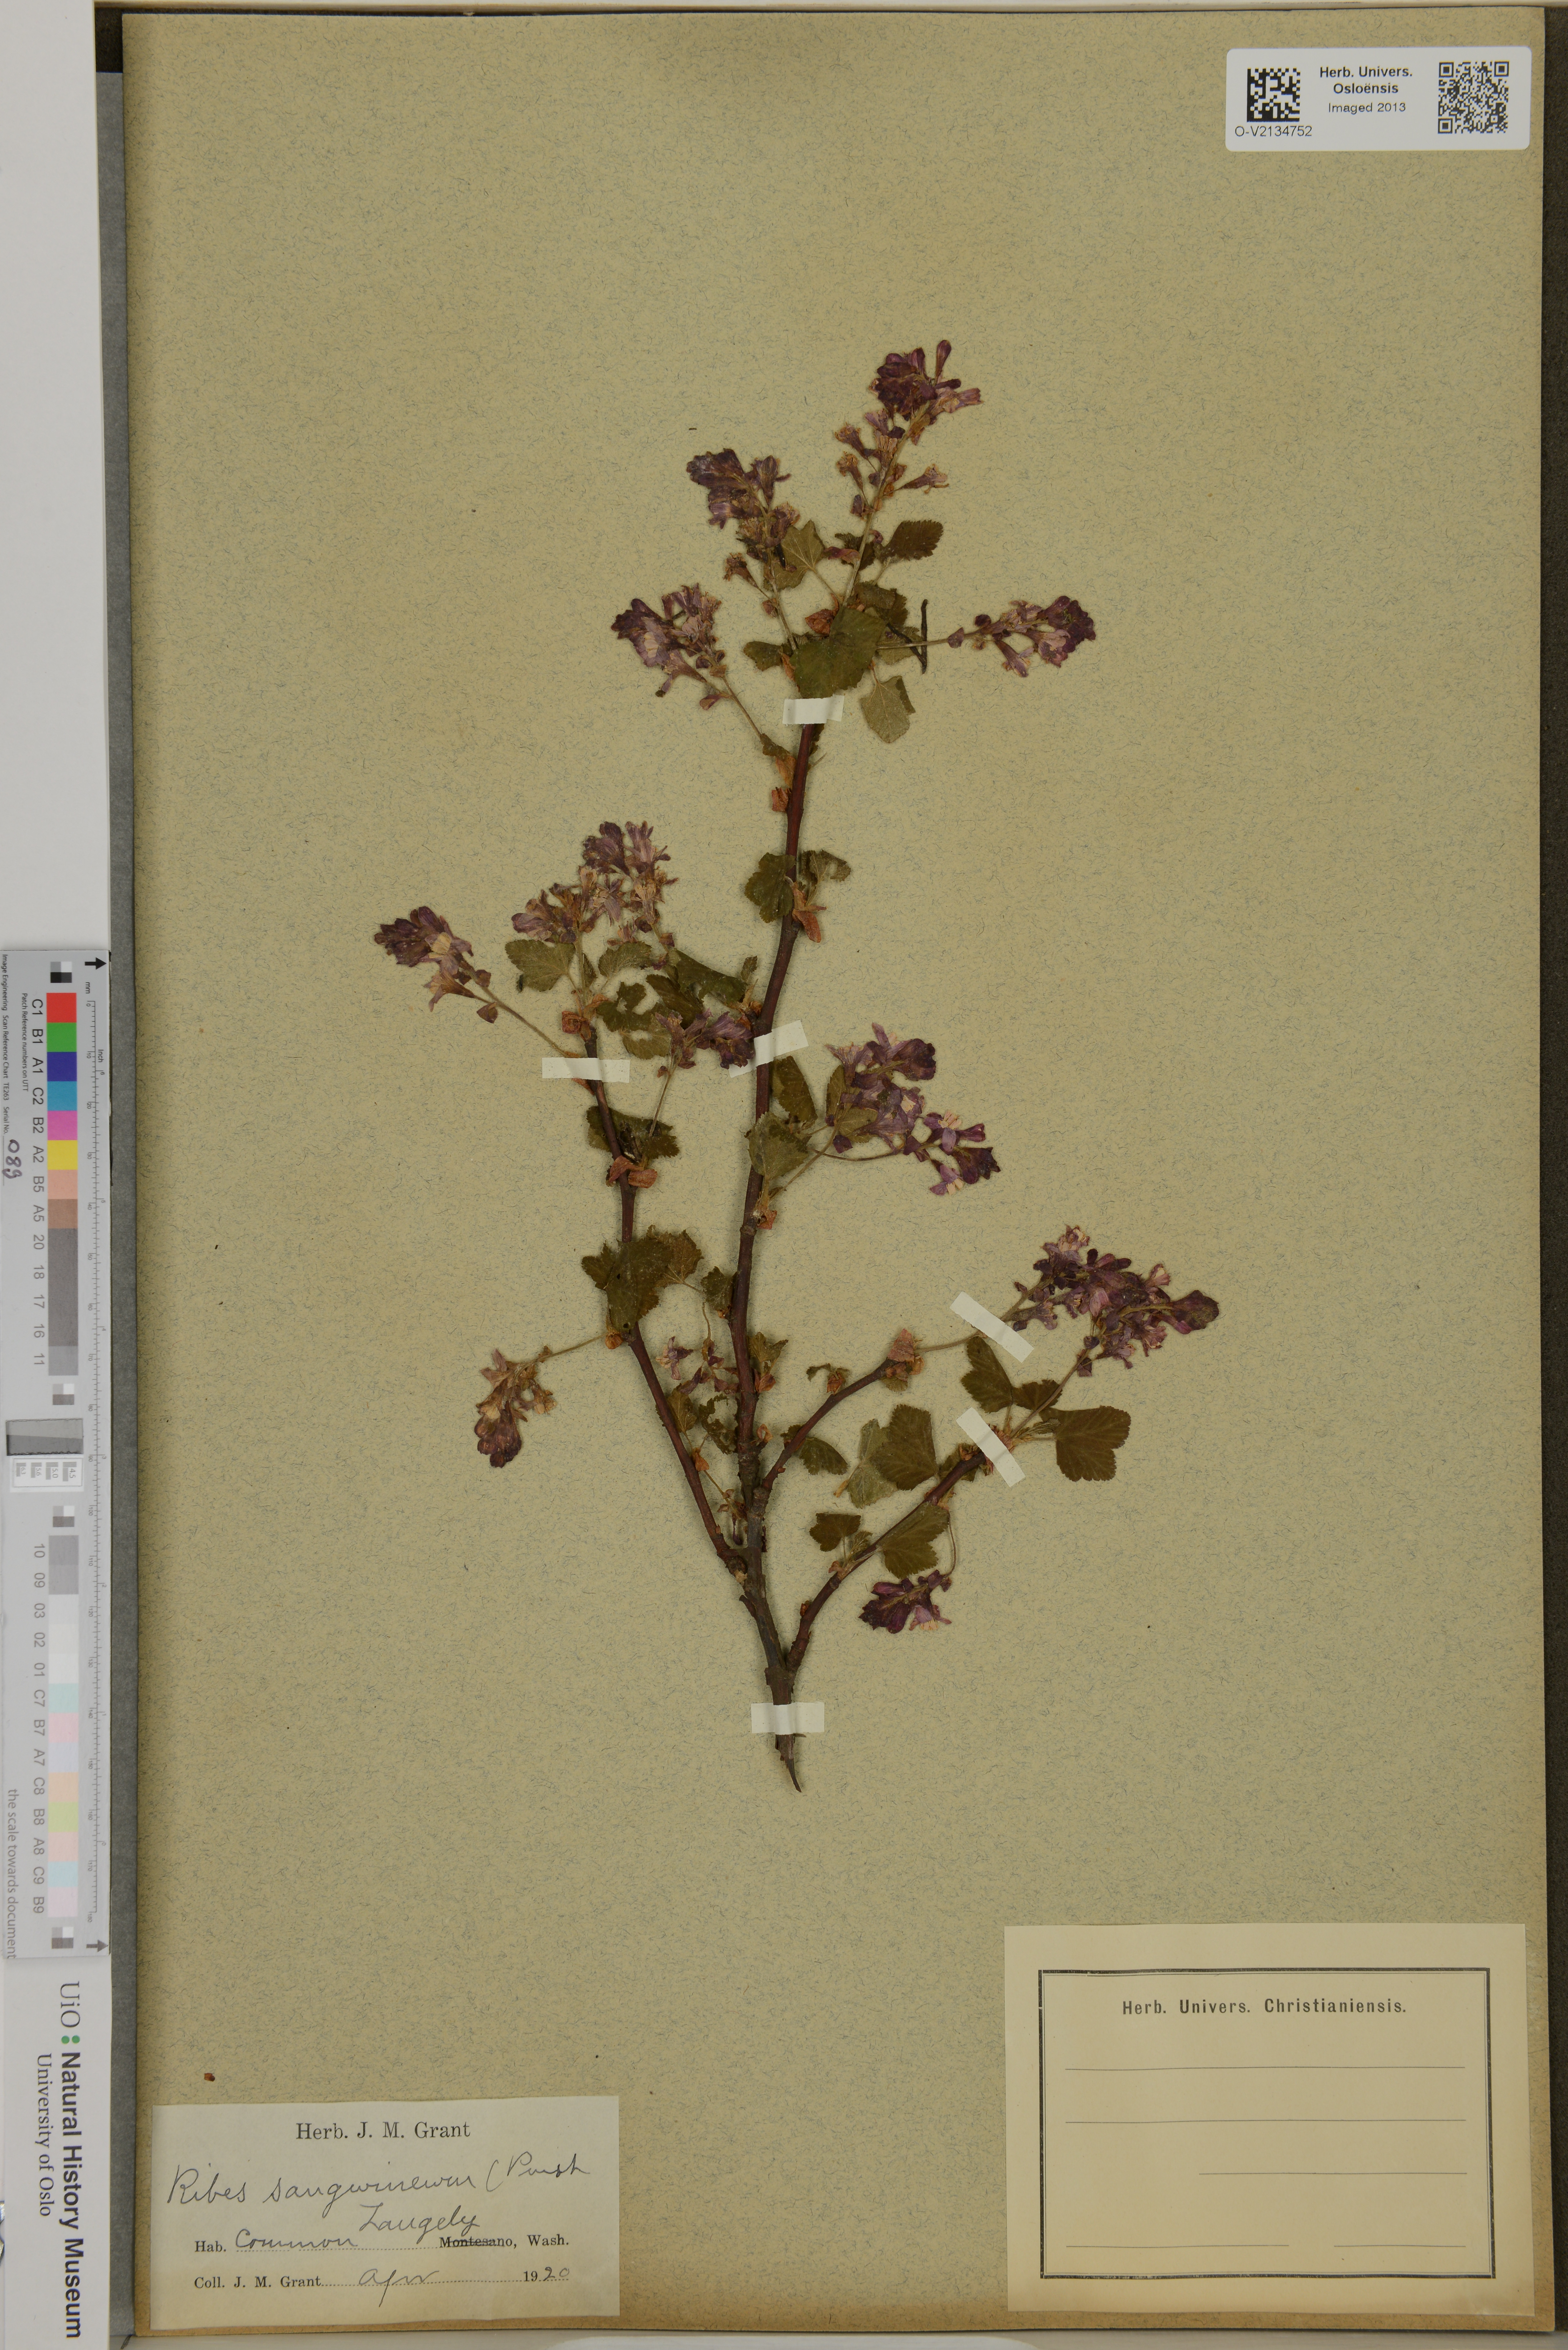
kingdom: Plantae
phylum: Tracheophyta
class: Magnoliopsida
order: Saxifragales
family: Grossulariaceae
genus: Ribes
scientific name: Ribes sanguineum
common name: Flowering currant
